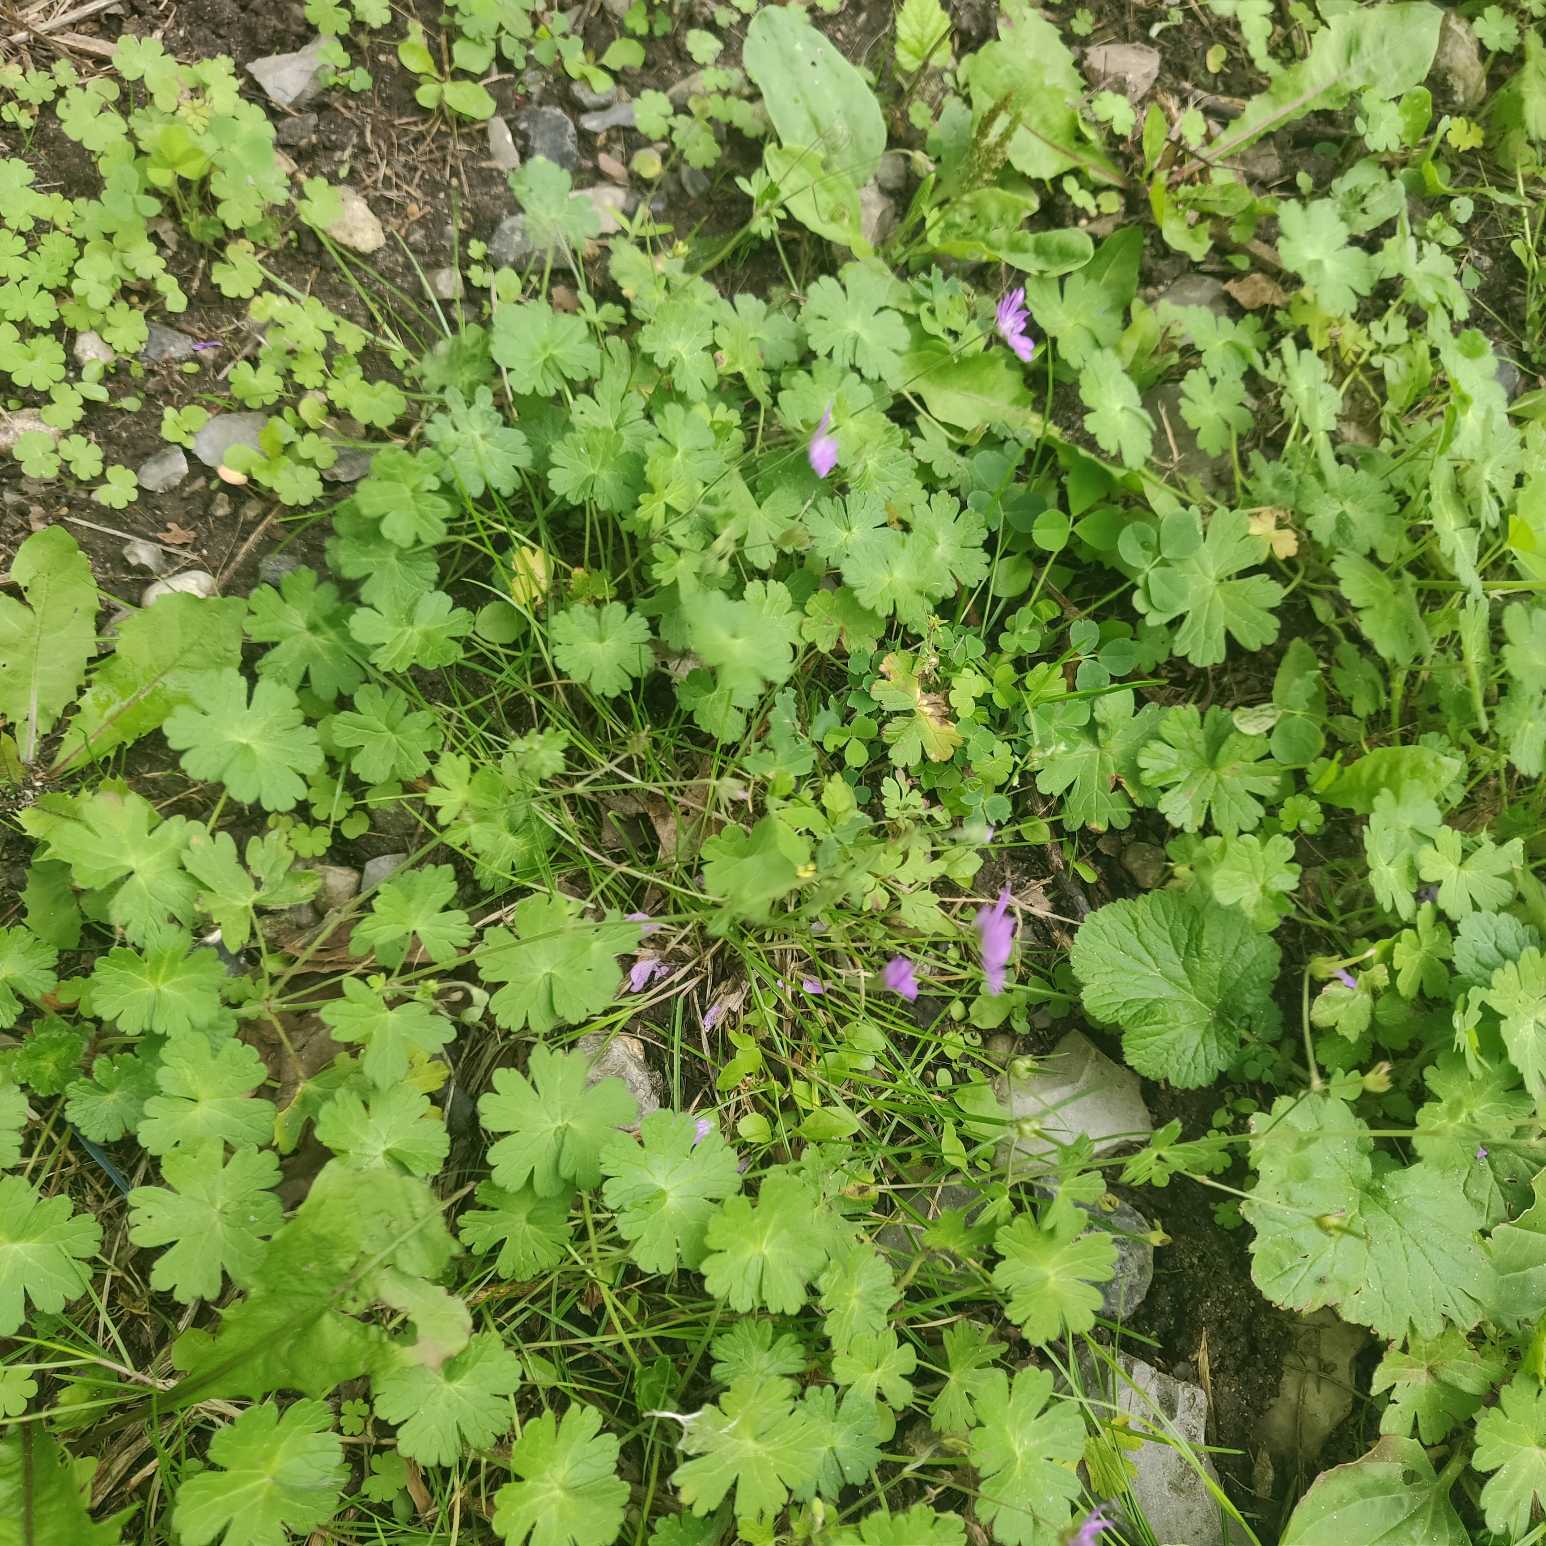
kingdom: Plantae
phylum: Tracheophyta
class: Magnoliopsida
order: Geraniales
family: Geraniaceae
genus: Geranium
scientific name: Geranium pyrenaicum
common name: Pyrenæisk storkenæb
